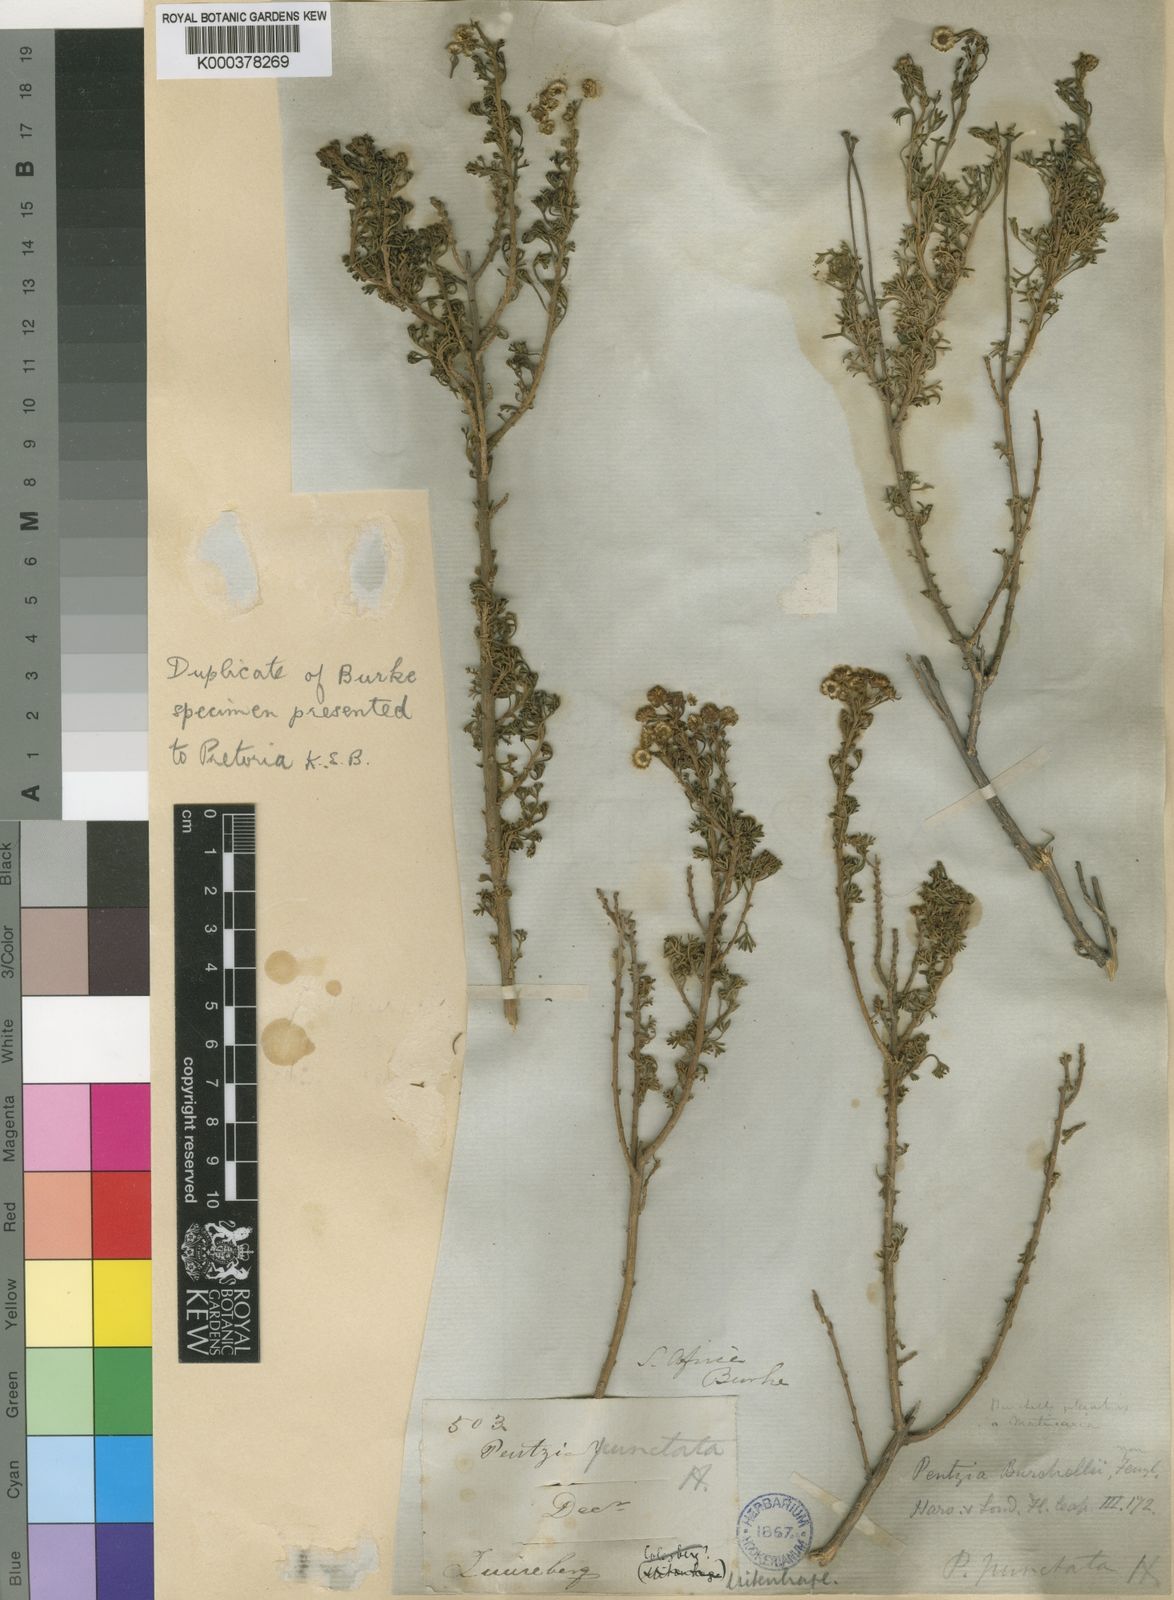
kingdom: Plantae
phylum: Tracheophyta
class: Magnoliopsida
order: Asterales
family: Asteraceae
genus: Pentzia
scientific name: Pentzia punctata
